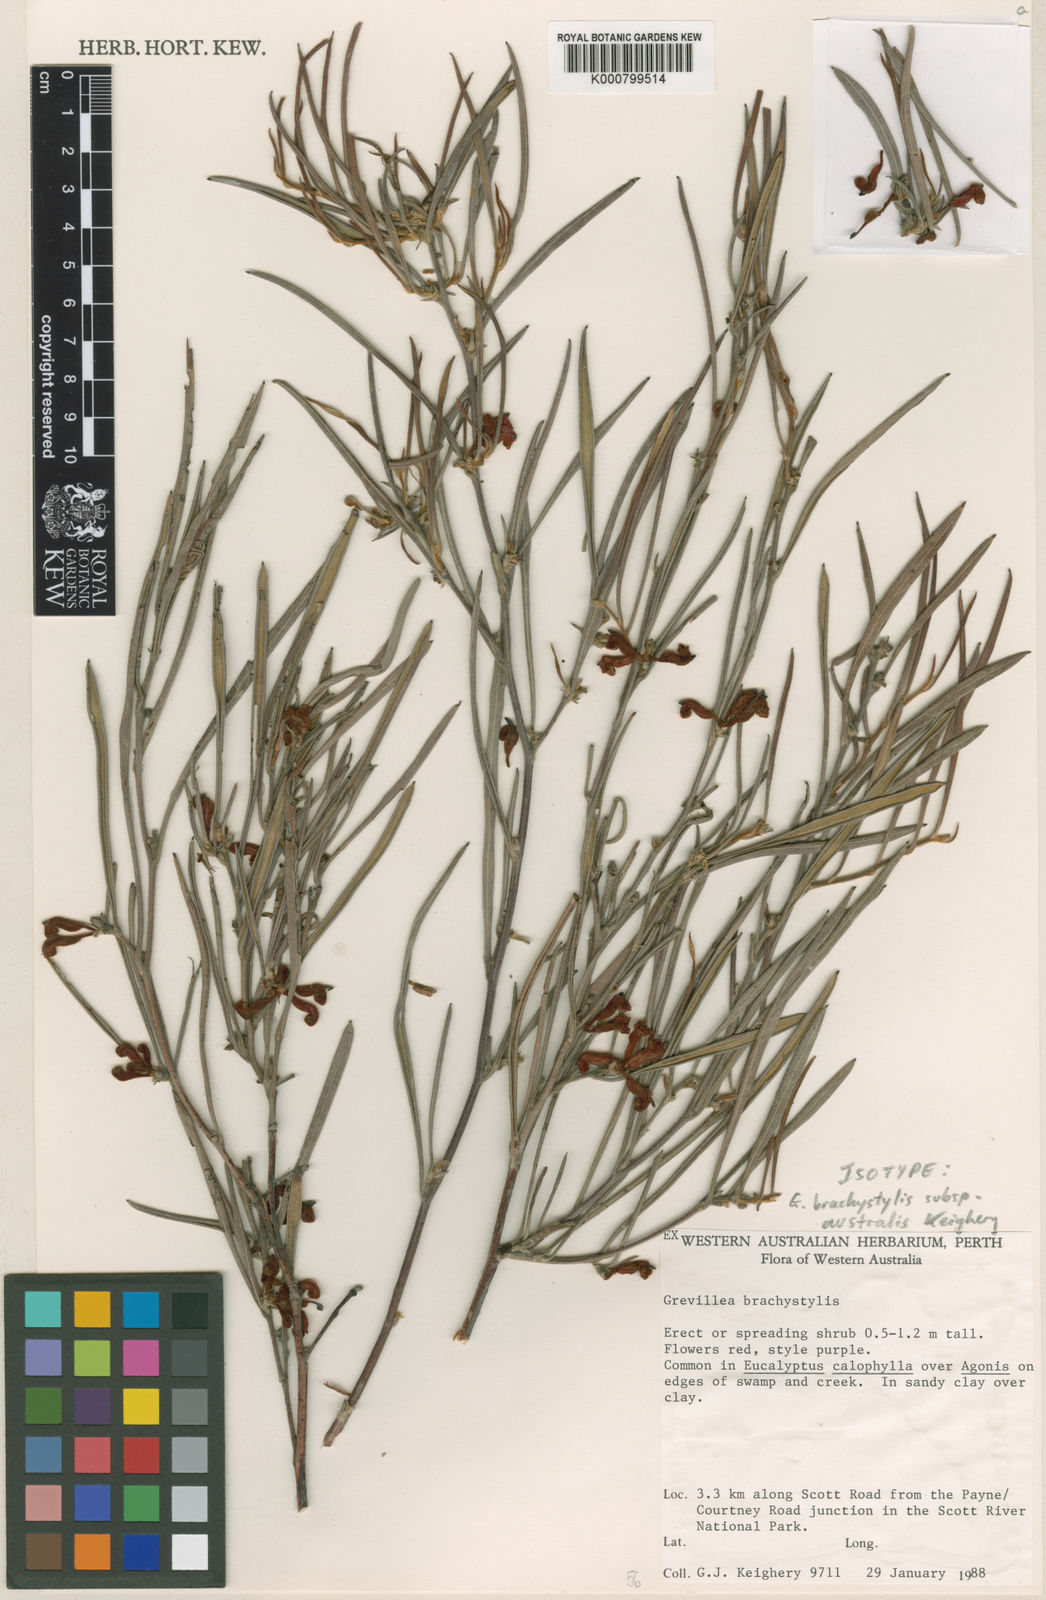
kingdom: Plantae
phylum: Tracheophyta
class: Magnoliopsida
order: Proteales
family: Proteaceae
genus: Grevillea
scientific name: Grevillea brachystylis
